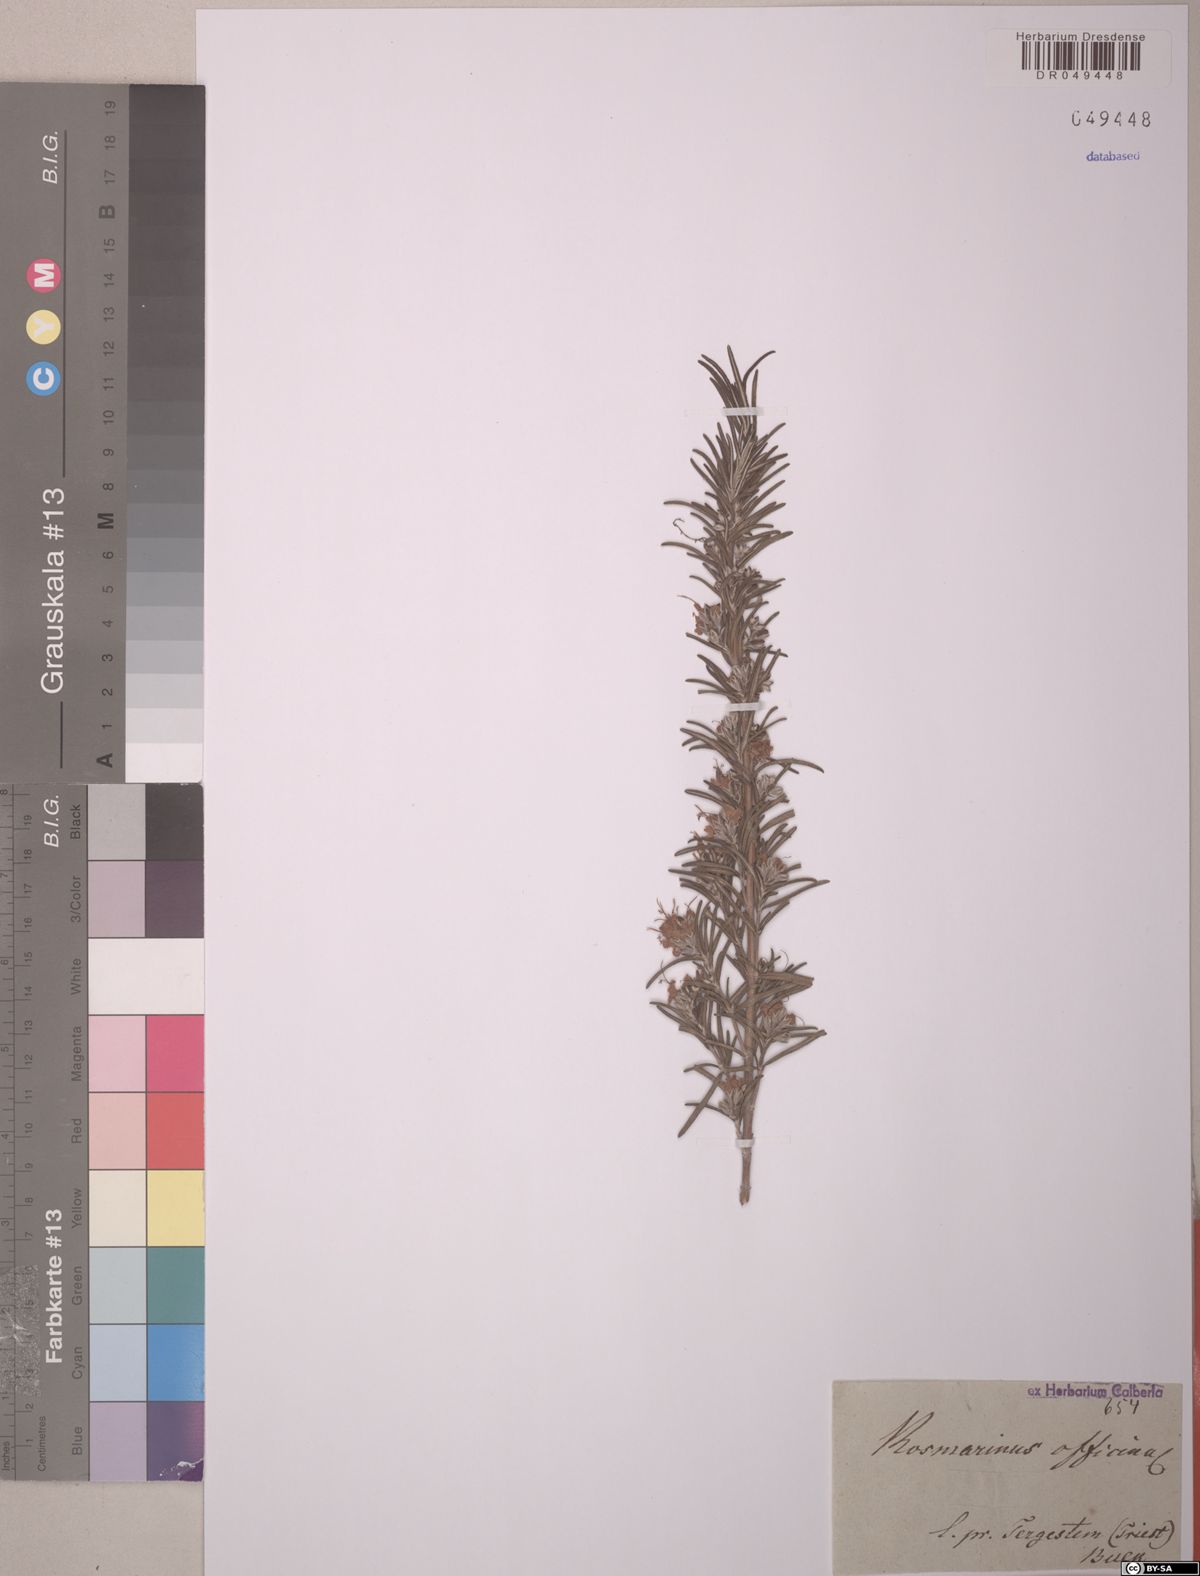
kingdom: Plantae
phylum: Tracheophyta
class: Magnoliopsida
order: Lamiales
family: Lamiaceae
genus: Salvia
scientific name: Salvia rosmarinus
